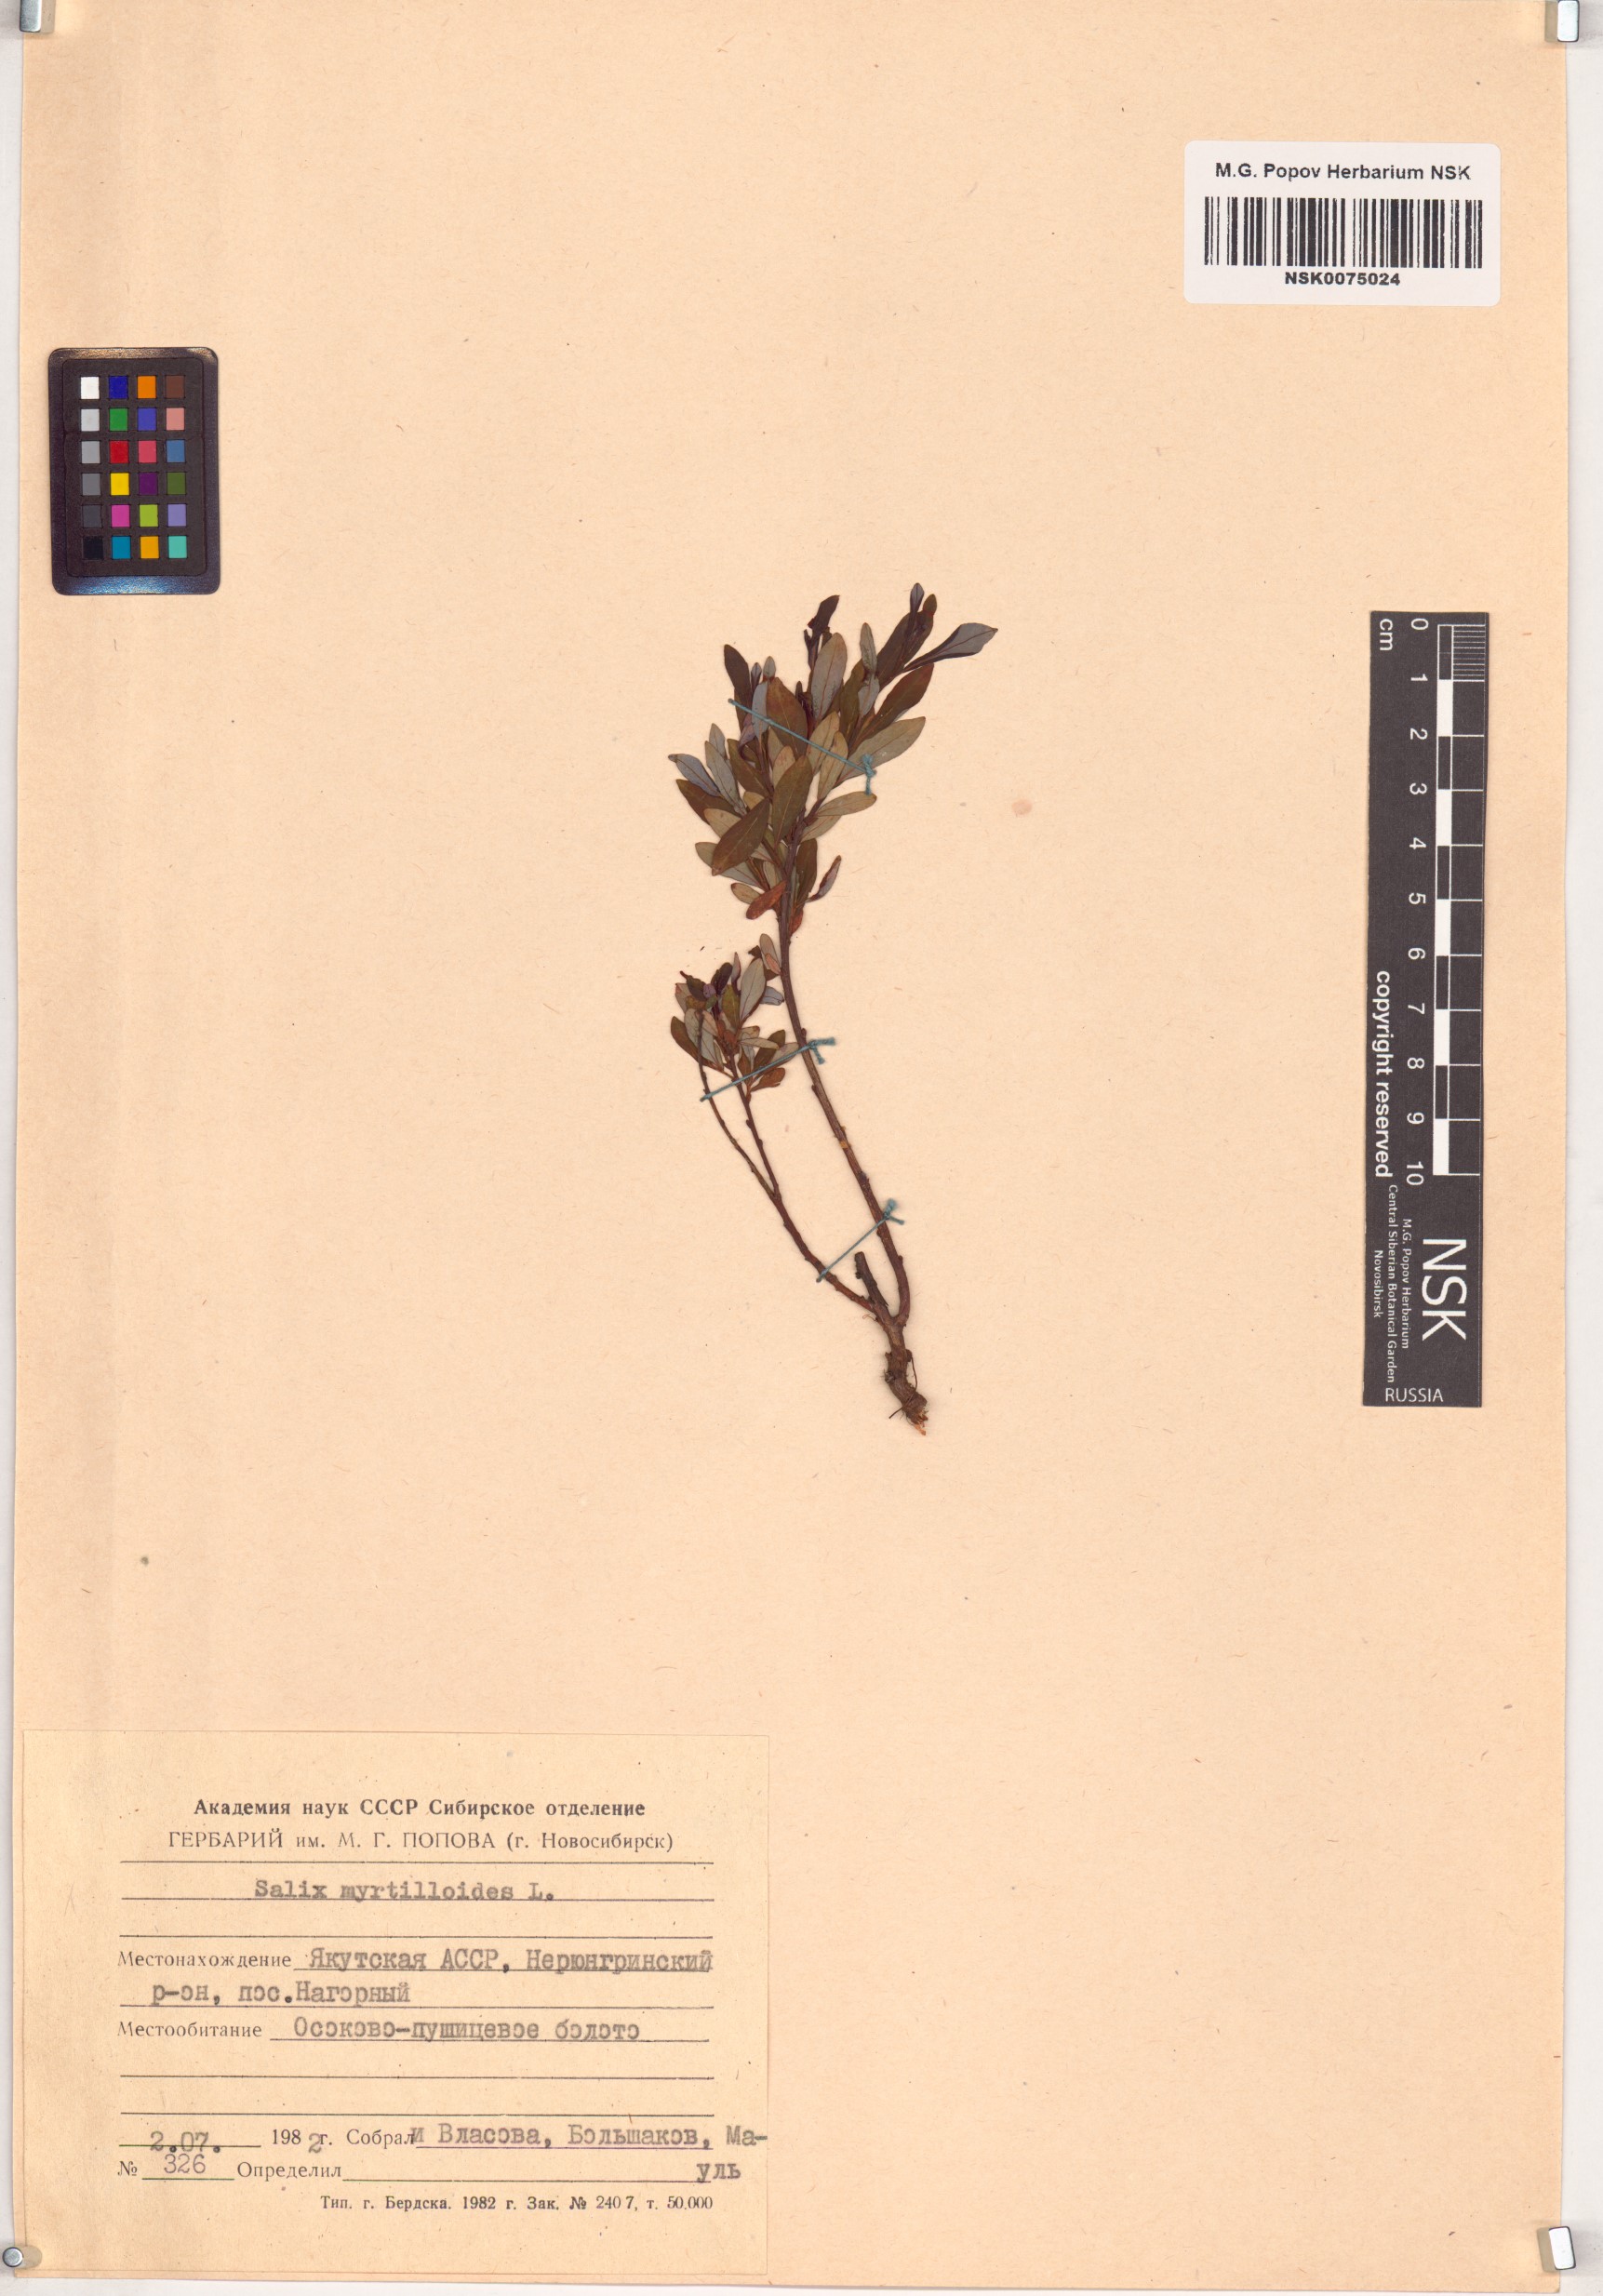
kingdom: Plantae
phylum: Tracheophyta
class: Magnoliopsida
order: Malpighiales
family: Salicaceae
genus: Salix
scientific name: Salix myrtilloides
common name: Myrtle-leaved willow
